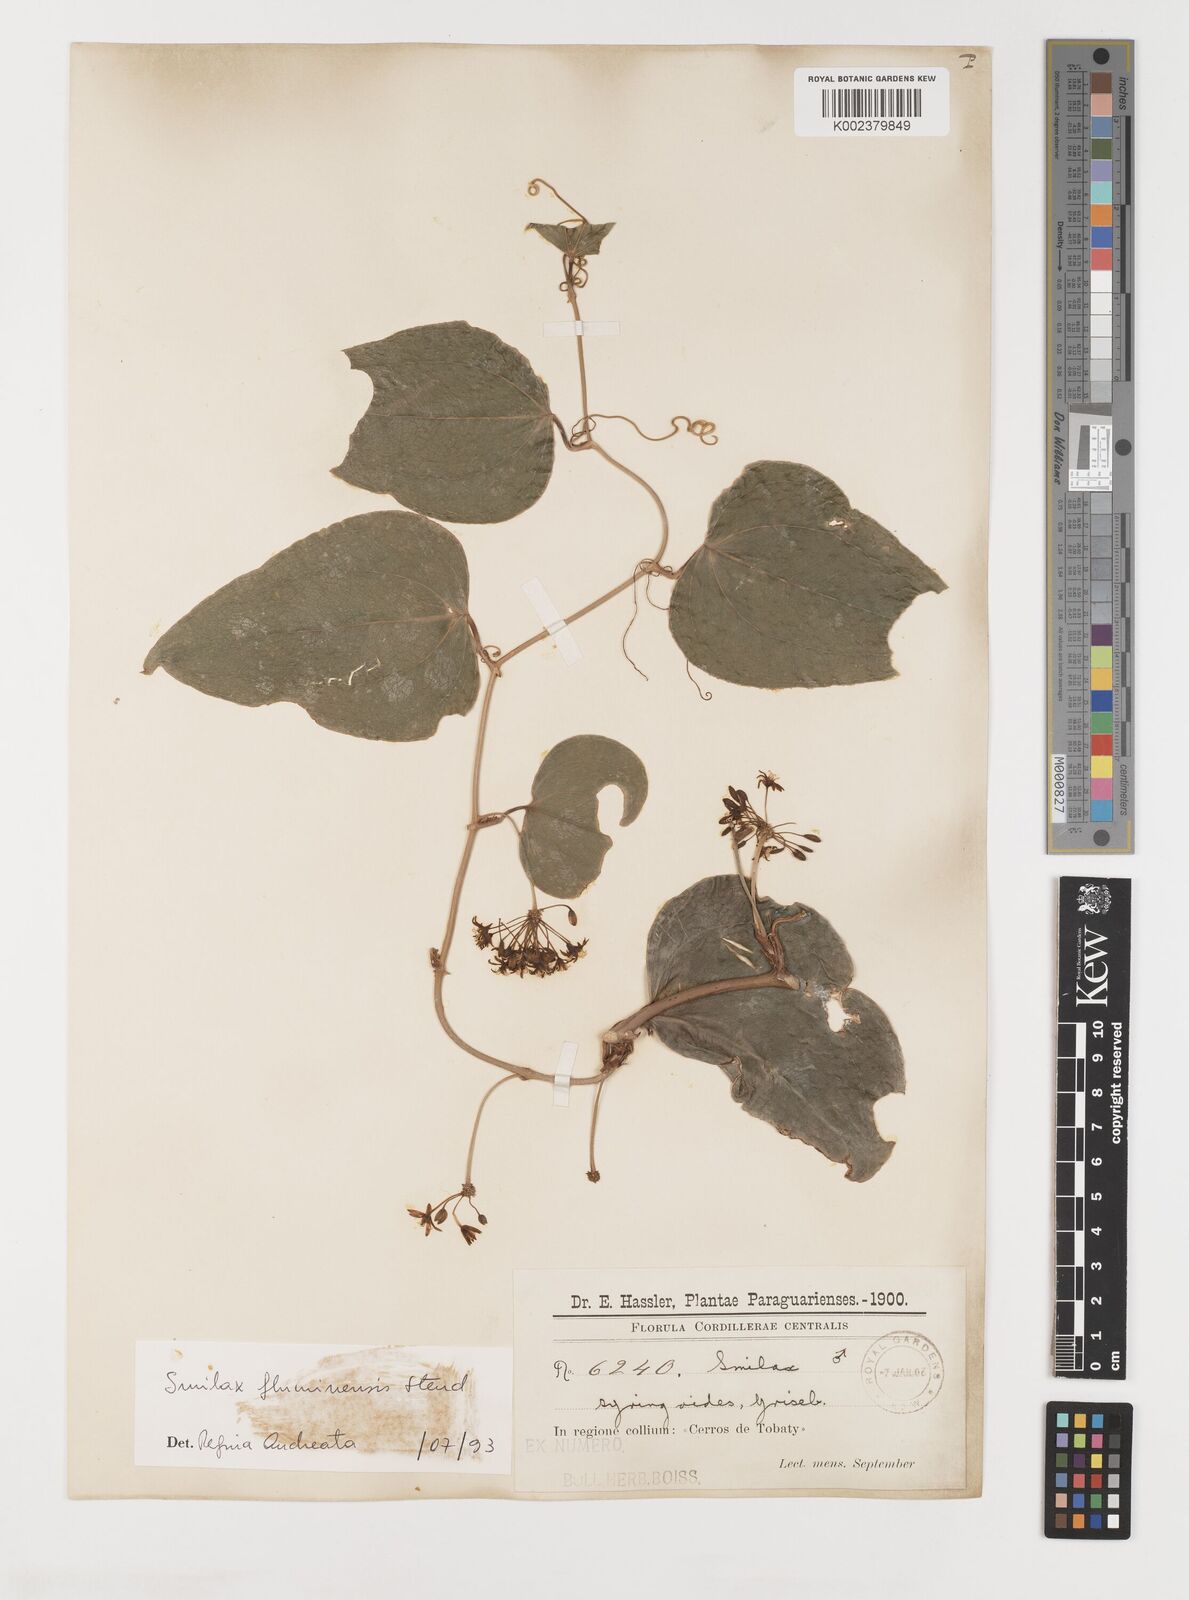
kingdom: Plantae
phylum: Tracheophyta
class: Liliopsida
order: Liliales
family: Smilacaceae
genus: Smilax
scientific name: Smilax fluminensis
